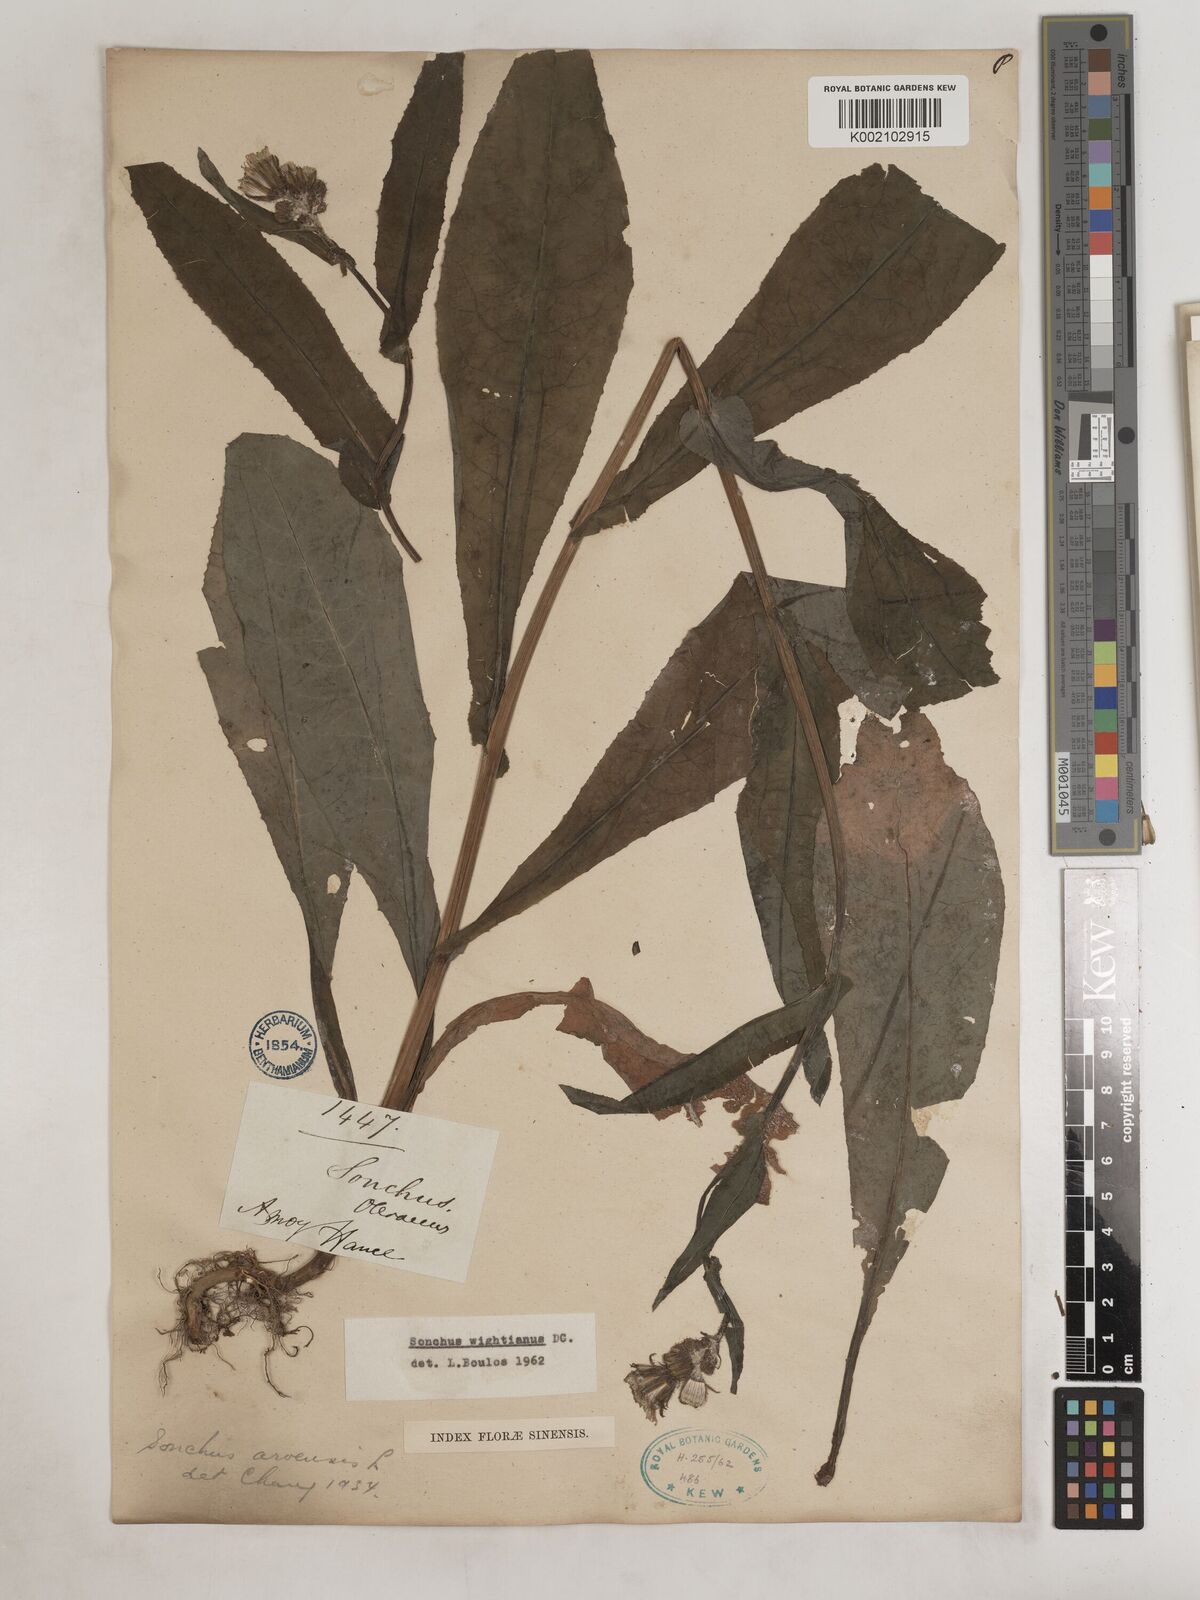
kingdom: Plantae
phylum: Tracheophyta
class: Magnoliopsida
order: Asterales
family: Asteraceae
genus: Sonchus
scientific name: Sonchus wightianus
